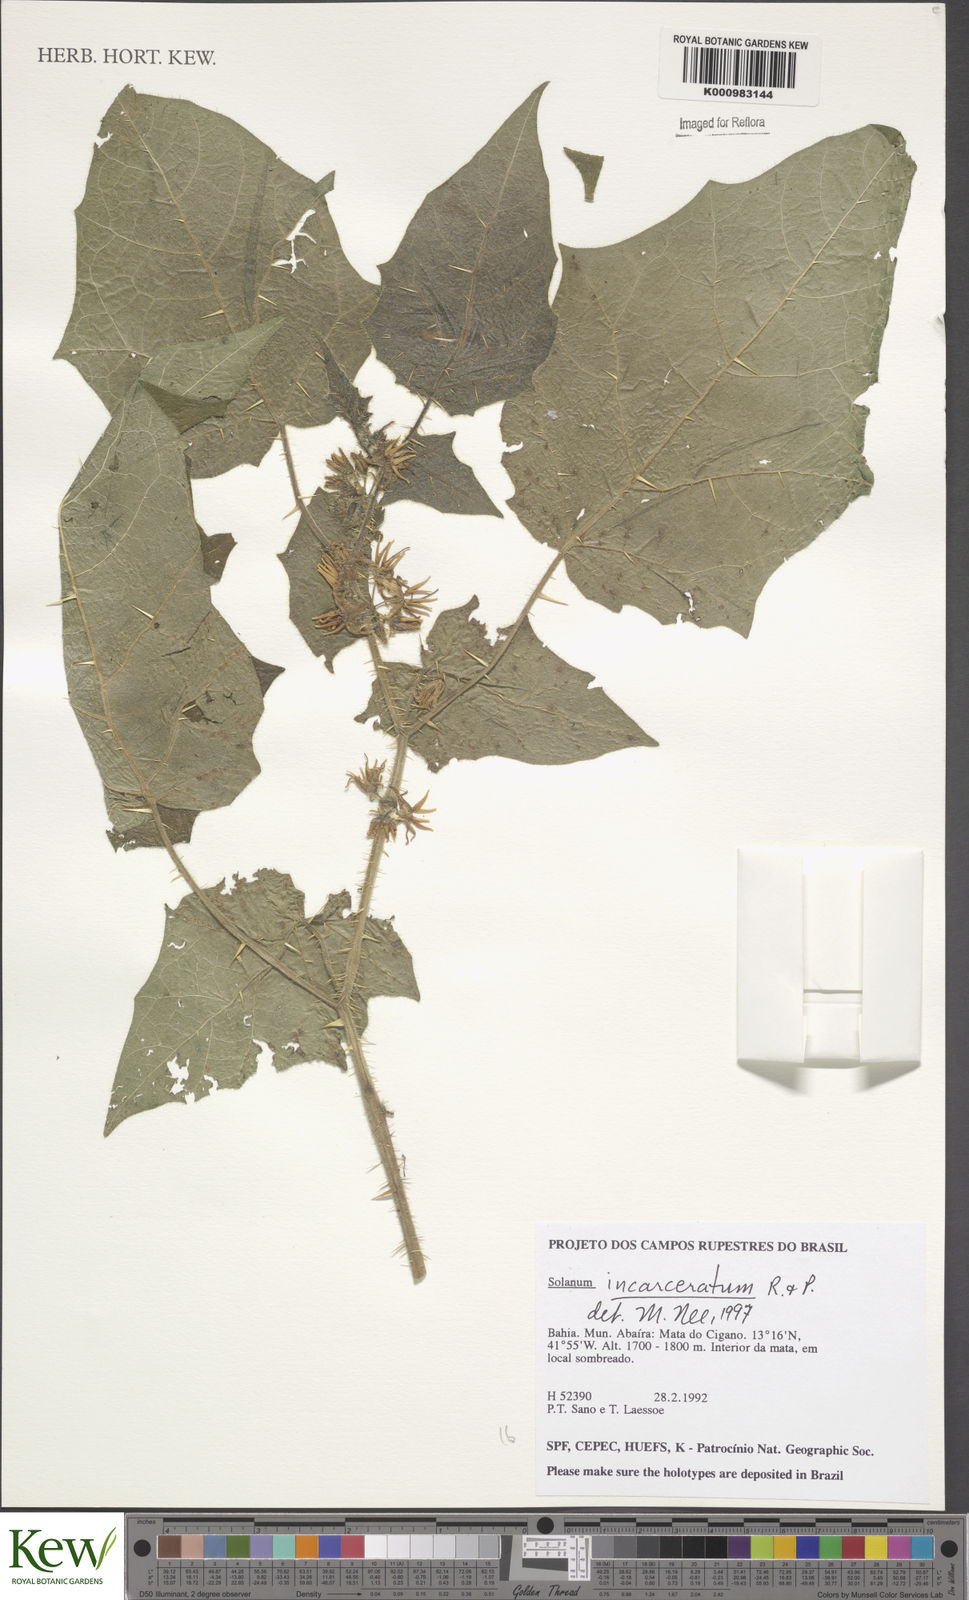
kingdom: Plantae
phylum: Tracheophyta
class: Magnoliopsida
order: Solanales
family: Solanaceae
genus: Solanum
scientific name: Solanum incarceratum
